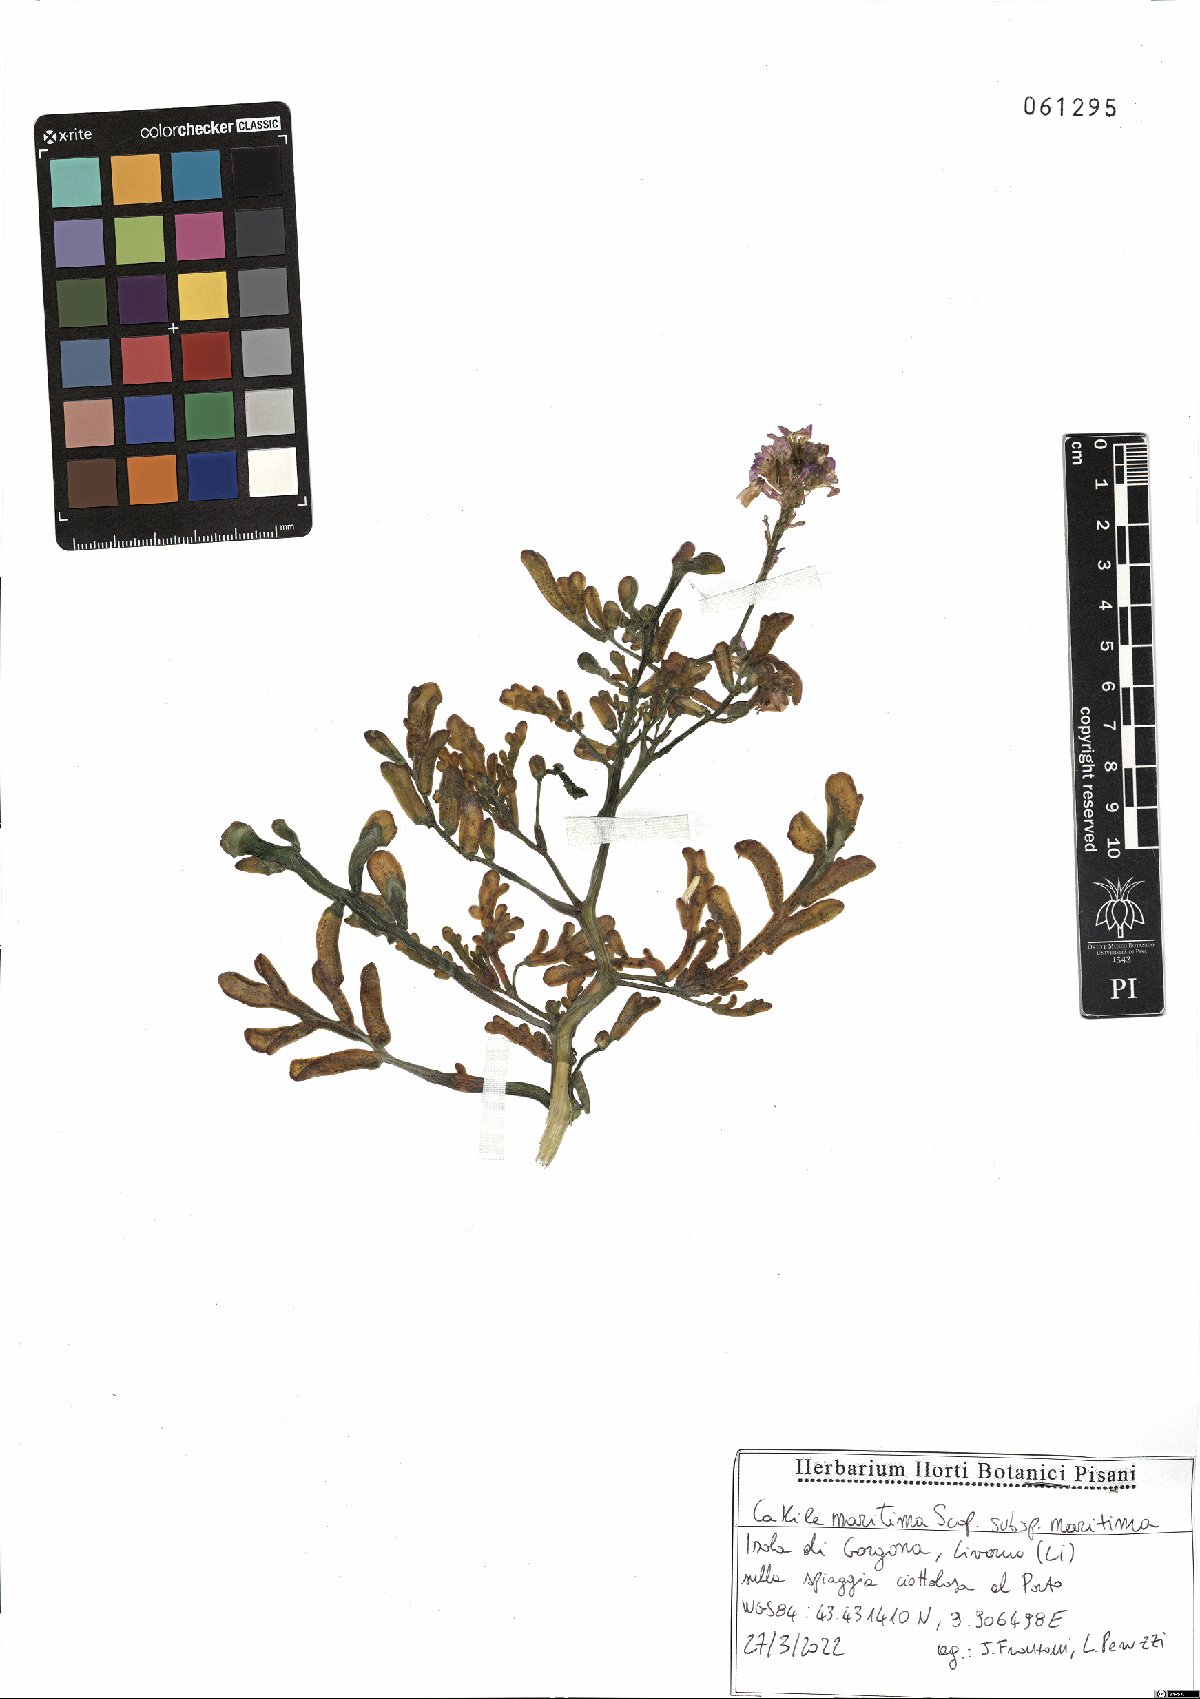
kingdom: Plantae
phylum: Tracheophyta
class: Magnoliopsida
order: Brassicales
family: Brassicaceae
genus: Cakile
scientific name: Cakile maritima
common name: Sea rocket
